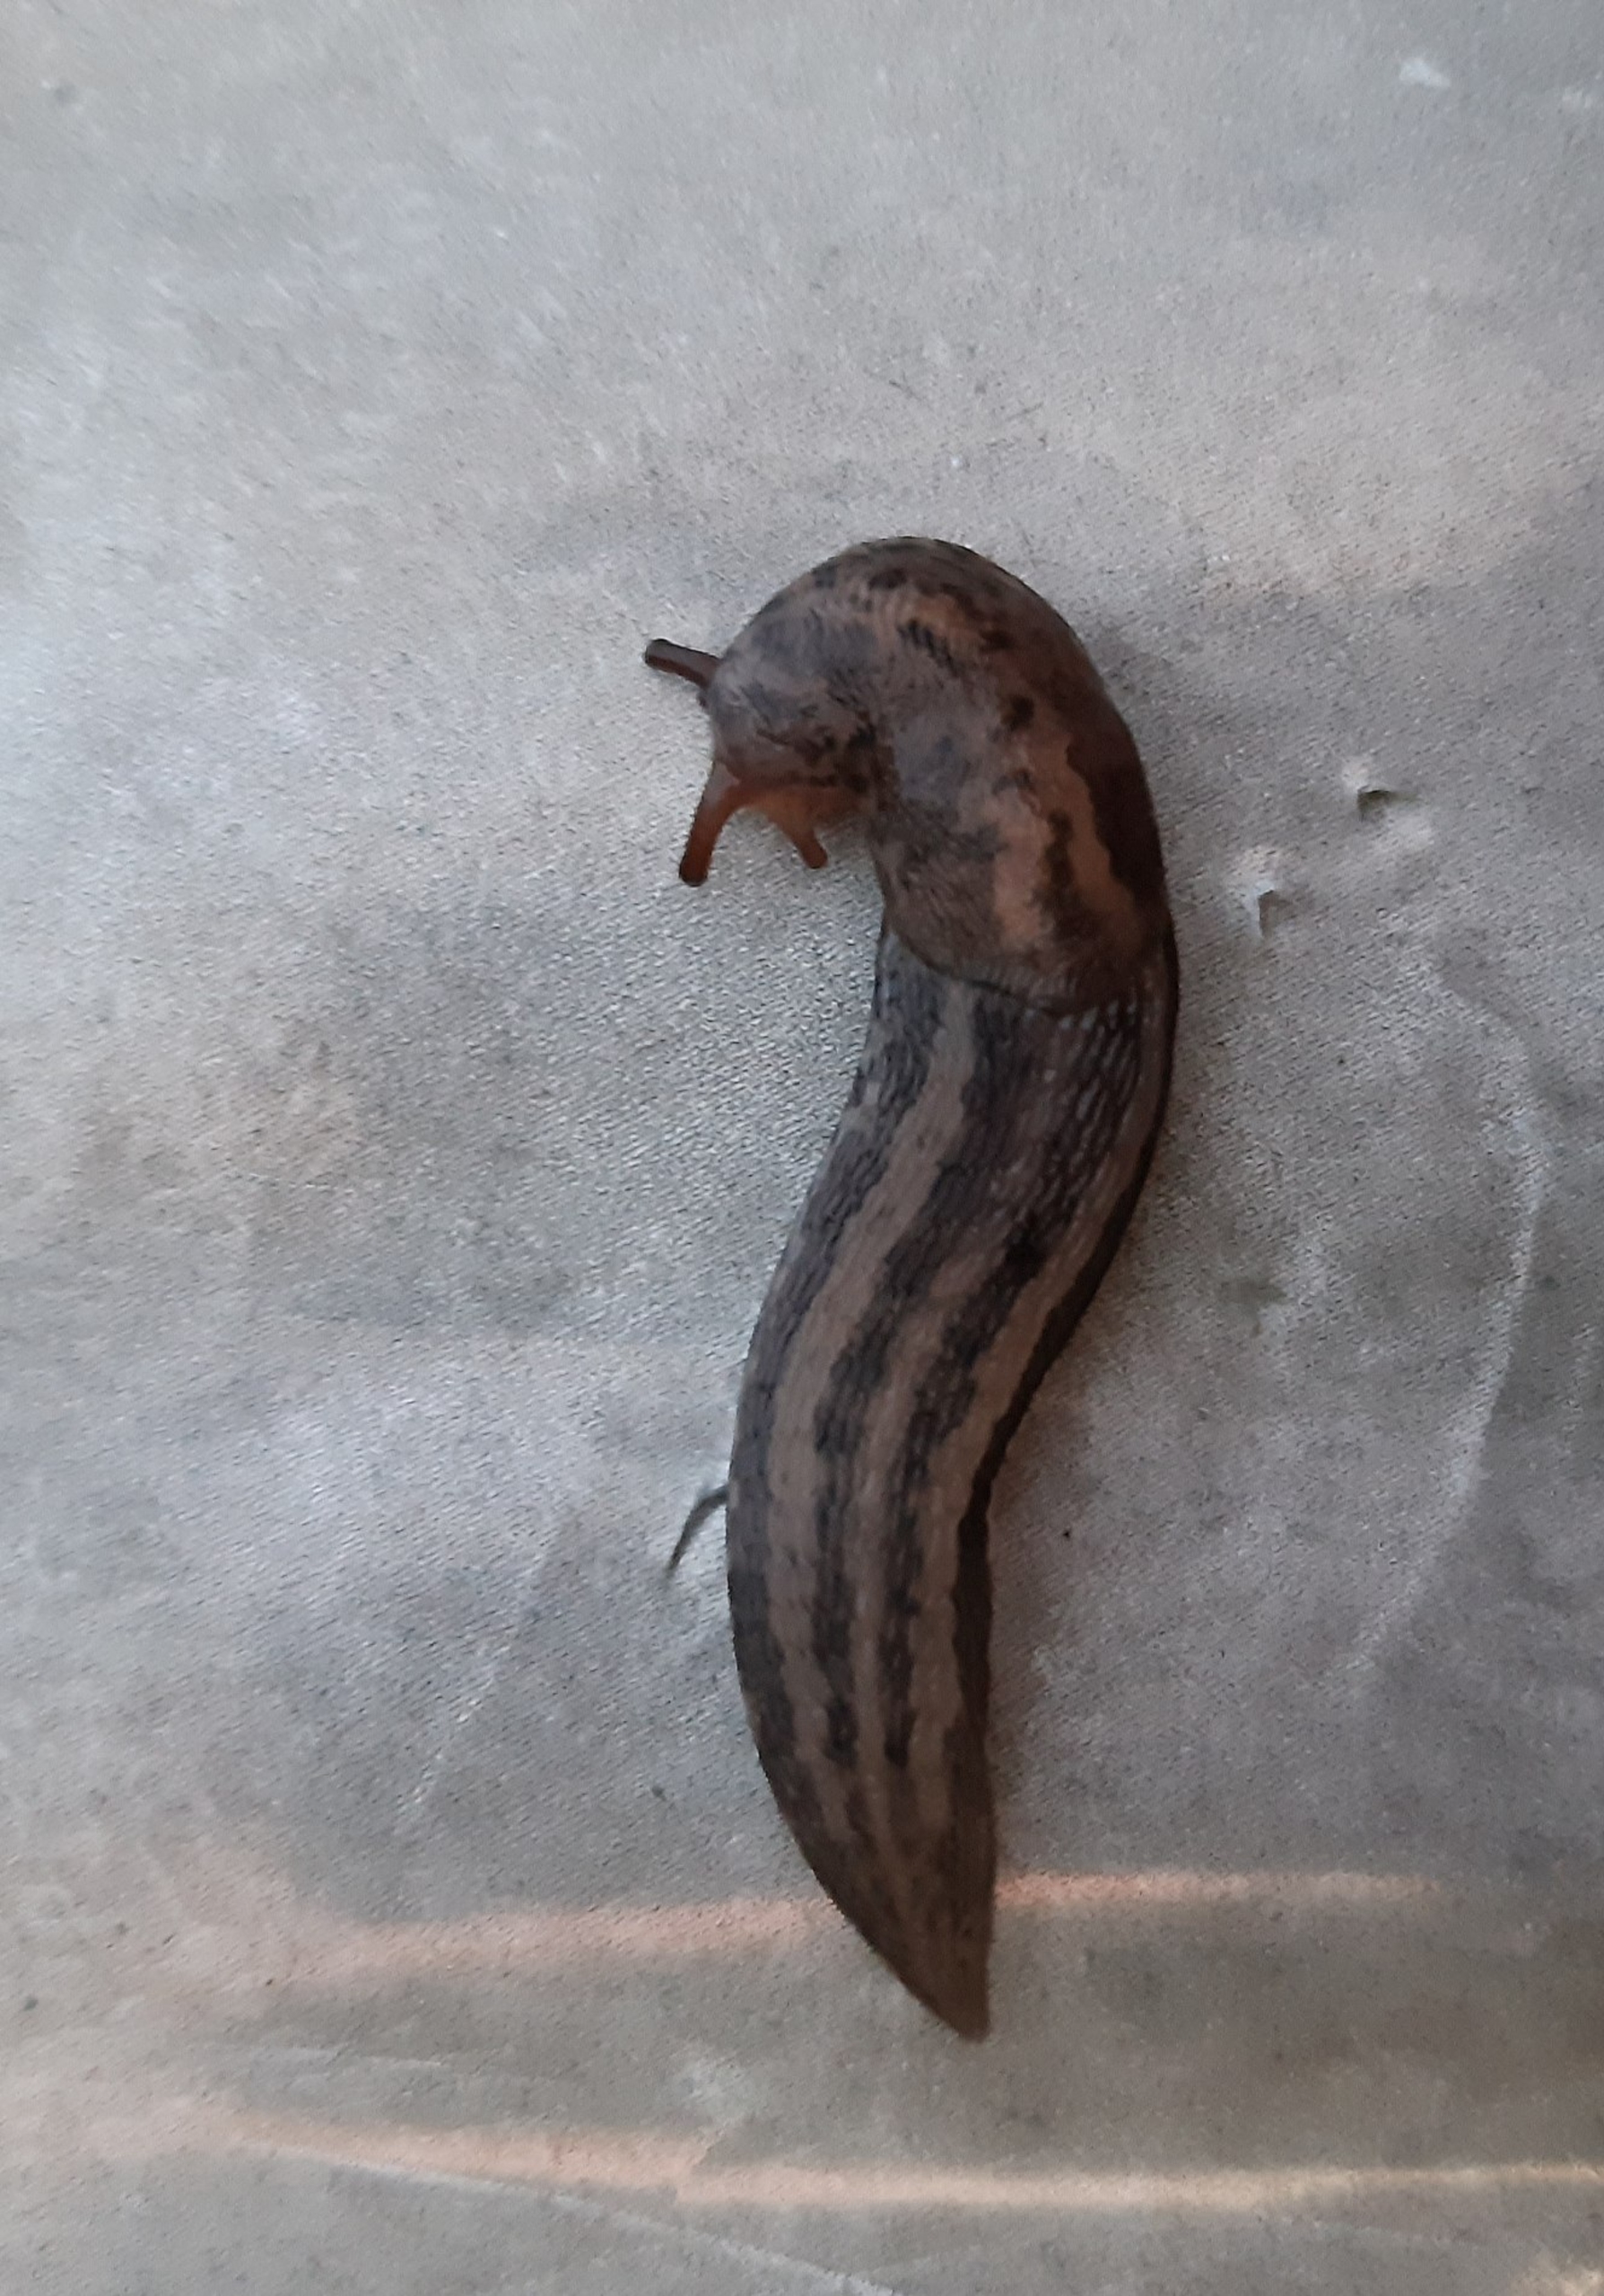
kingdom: Animalia
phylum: Mollusca
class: Gastropoda
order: Stylommatophora
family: Limacidae
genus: Limax
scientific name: Limax maximus
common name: Pantersnegl
